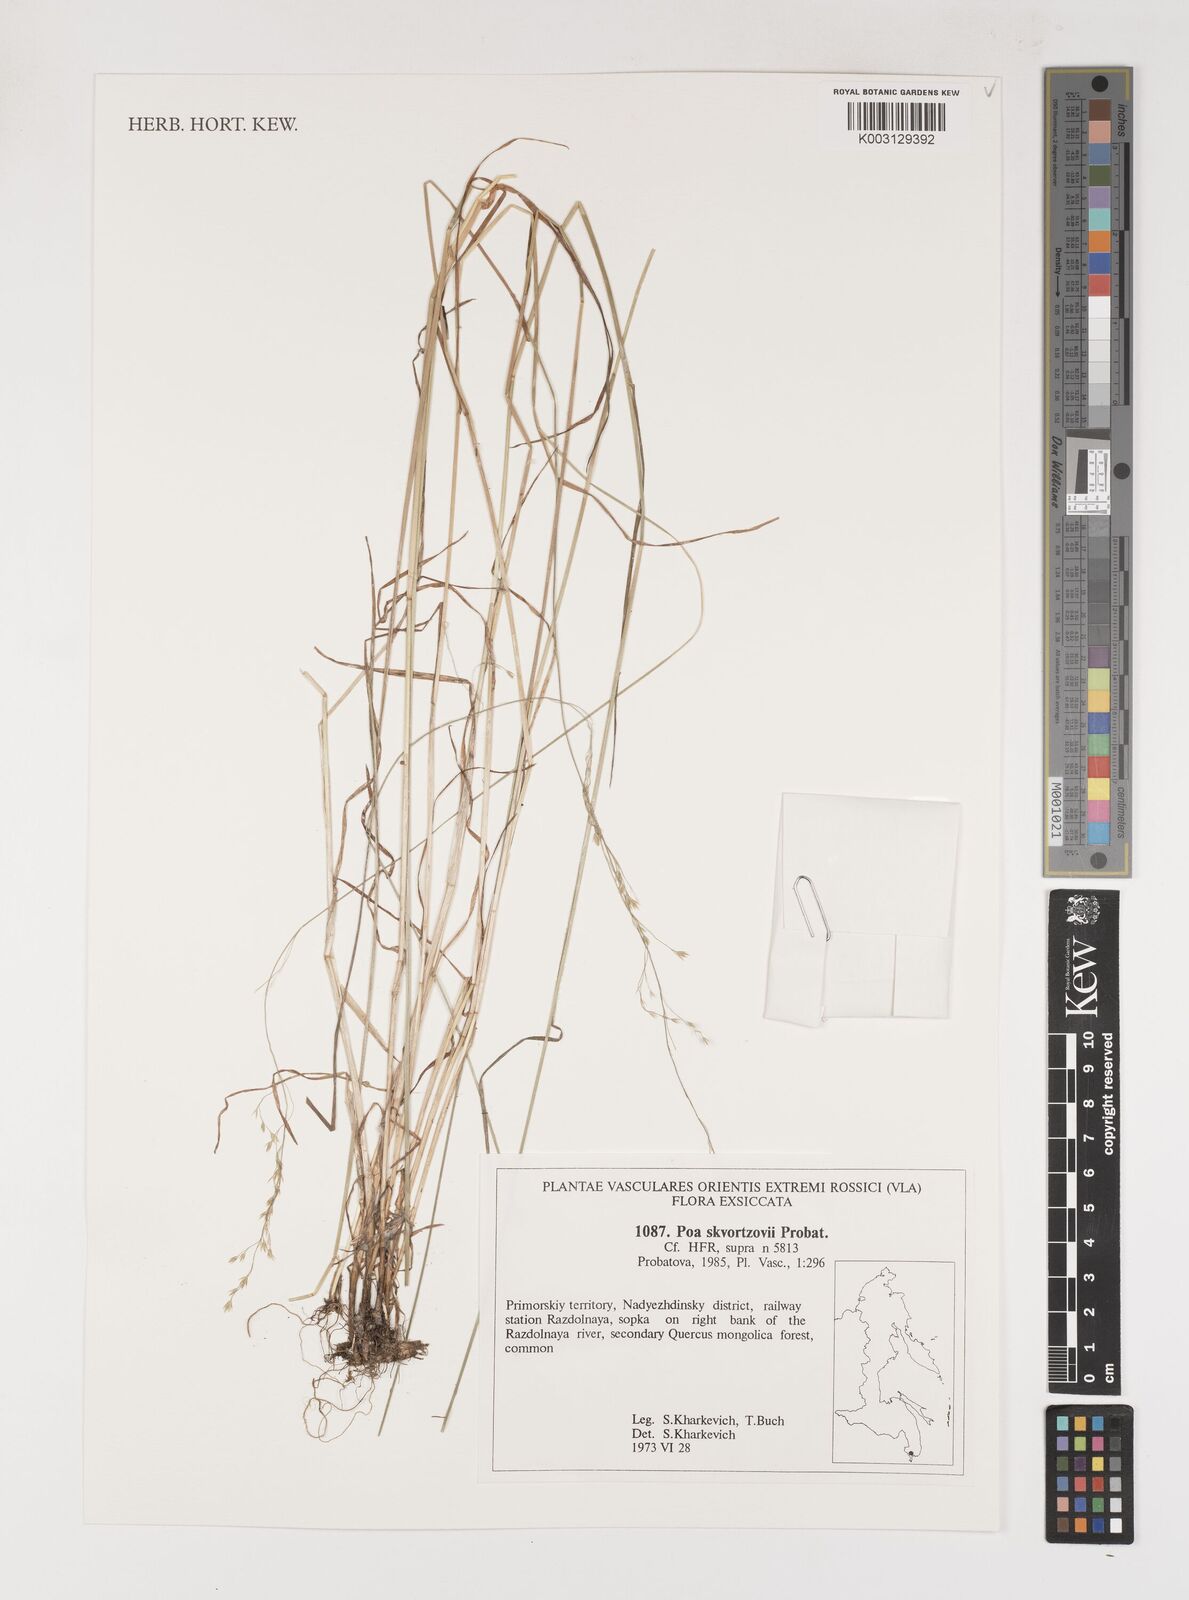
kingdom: Plantae
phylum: Tracheophyta
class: Liliopsida
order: Poales
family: Poaceae
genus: Poa
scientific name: Poa alta
